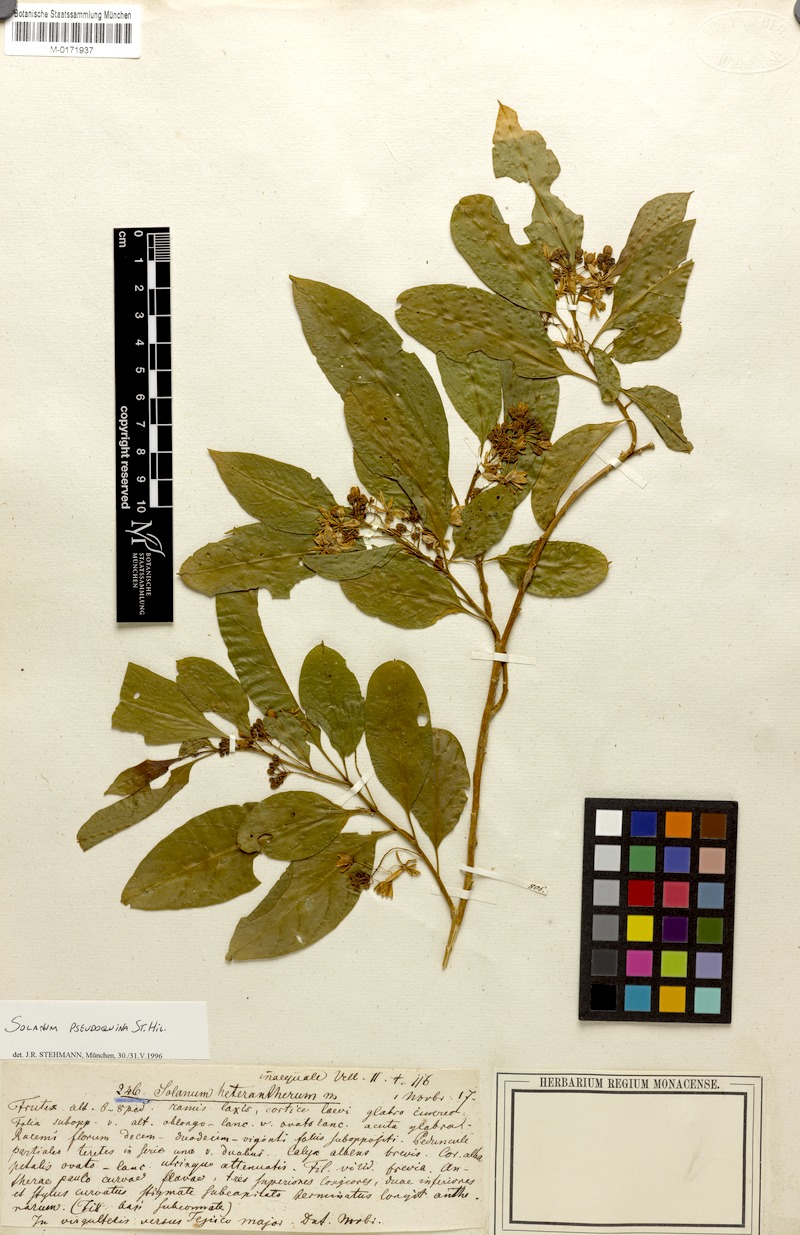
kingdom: Plantae
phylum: Tracheophyta
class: Magnoliopsida
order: Solanales
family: Solanaceae
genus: Solanum
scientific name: Solanum pseudoquina
